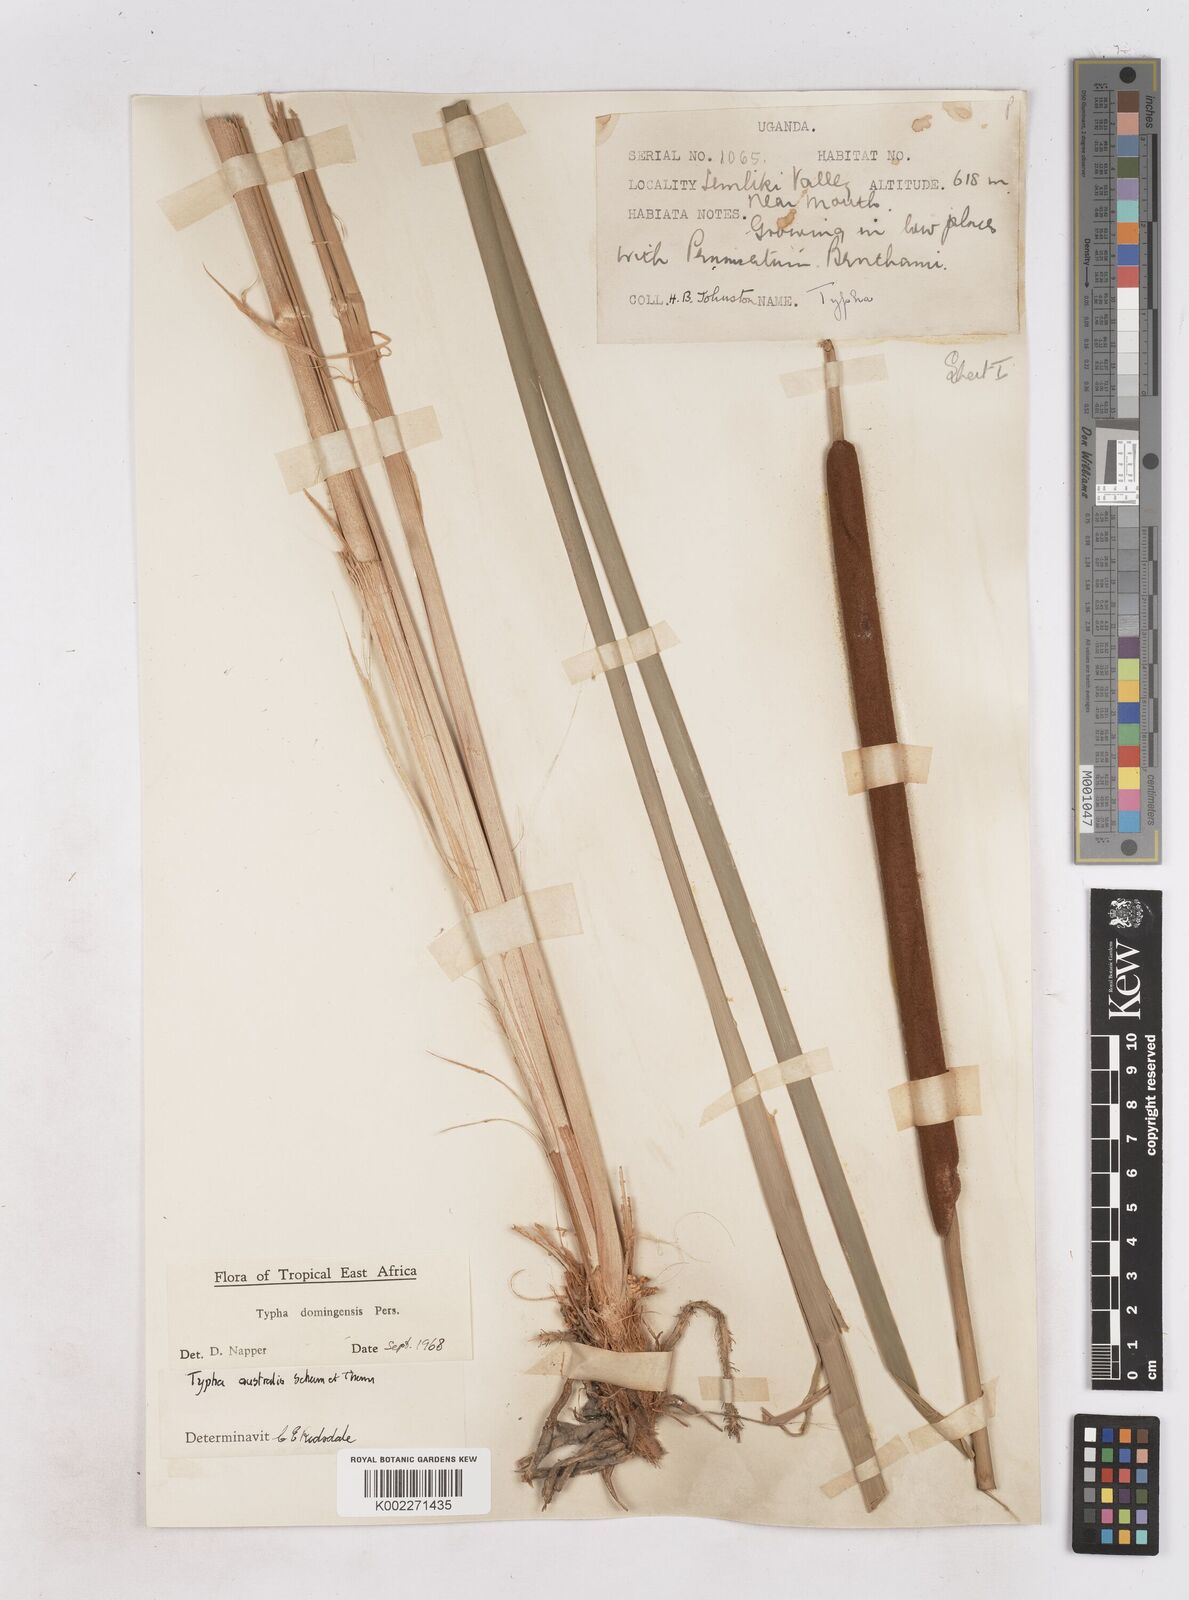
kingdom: Plantae
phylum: Tracheophyta
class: Liliopsida
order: Poales
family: Typhaceae
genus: Typha
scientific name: Typha domingensis
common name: Southern cattail
